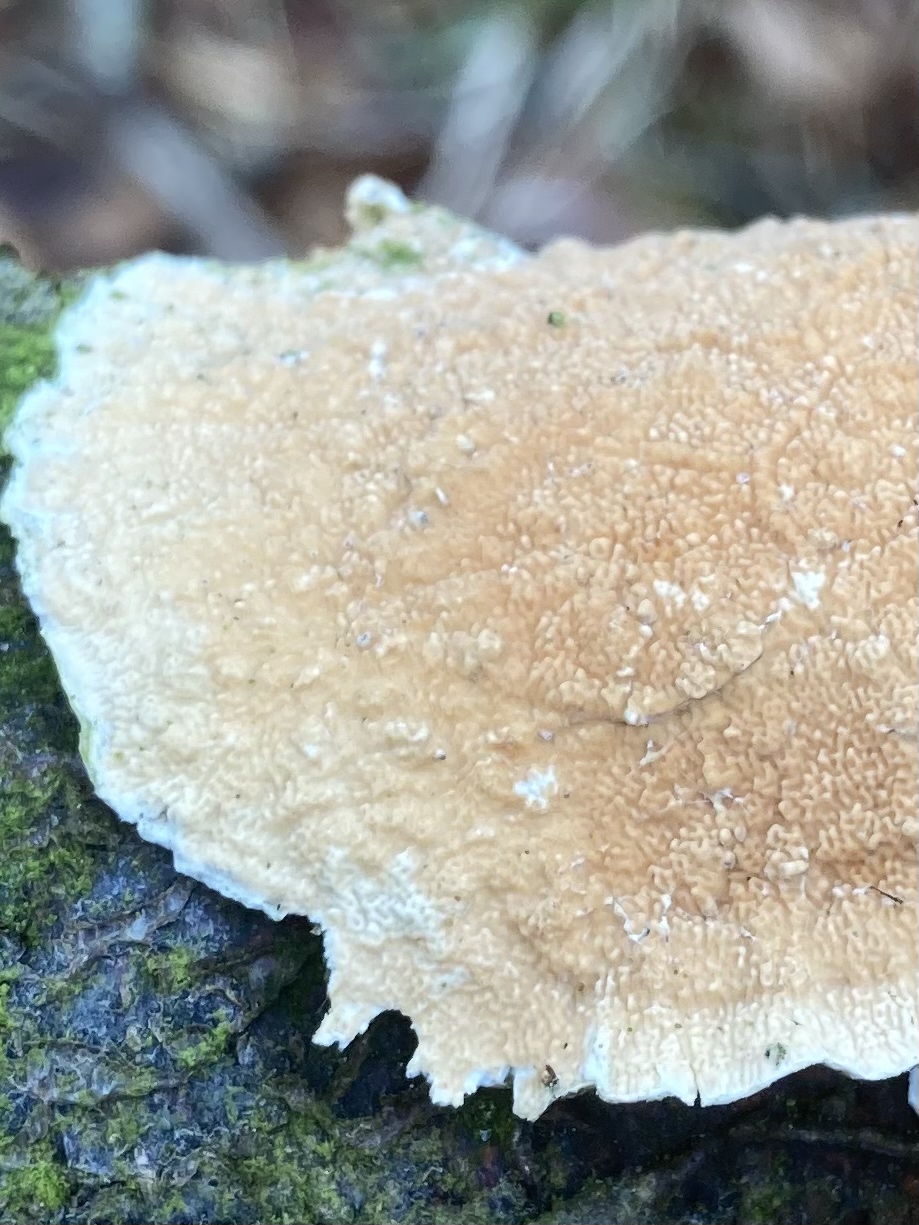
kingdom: Fungi
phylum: Basidiomycota
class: Agaricomycetes
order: Polyporales
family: Irpicaceae
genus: Byssomerulius
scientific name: Byssomerulius corium
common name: læder-åresvamp
